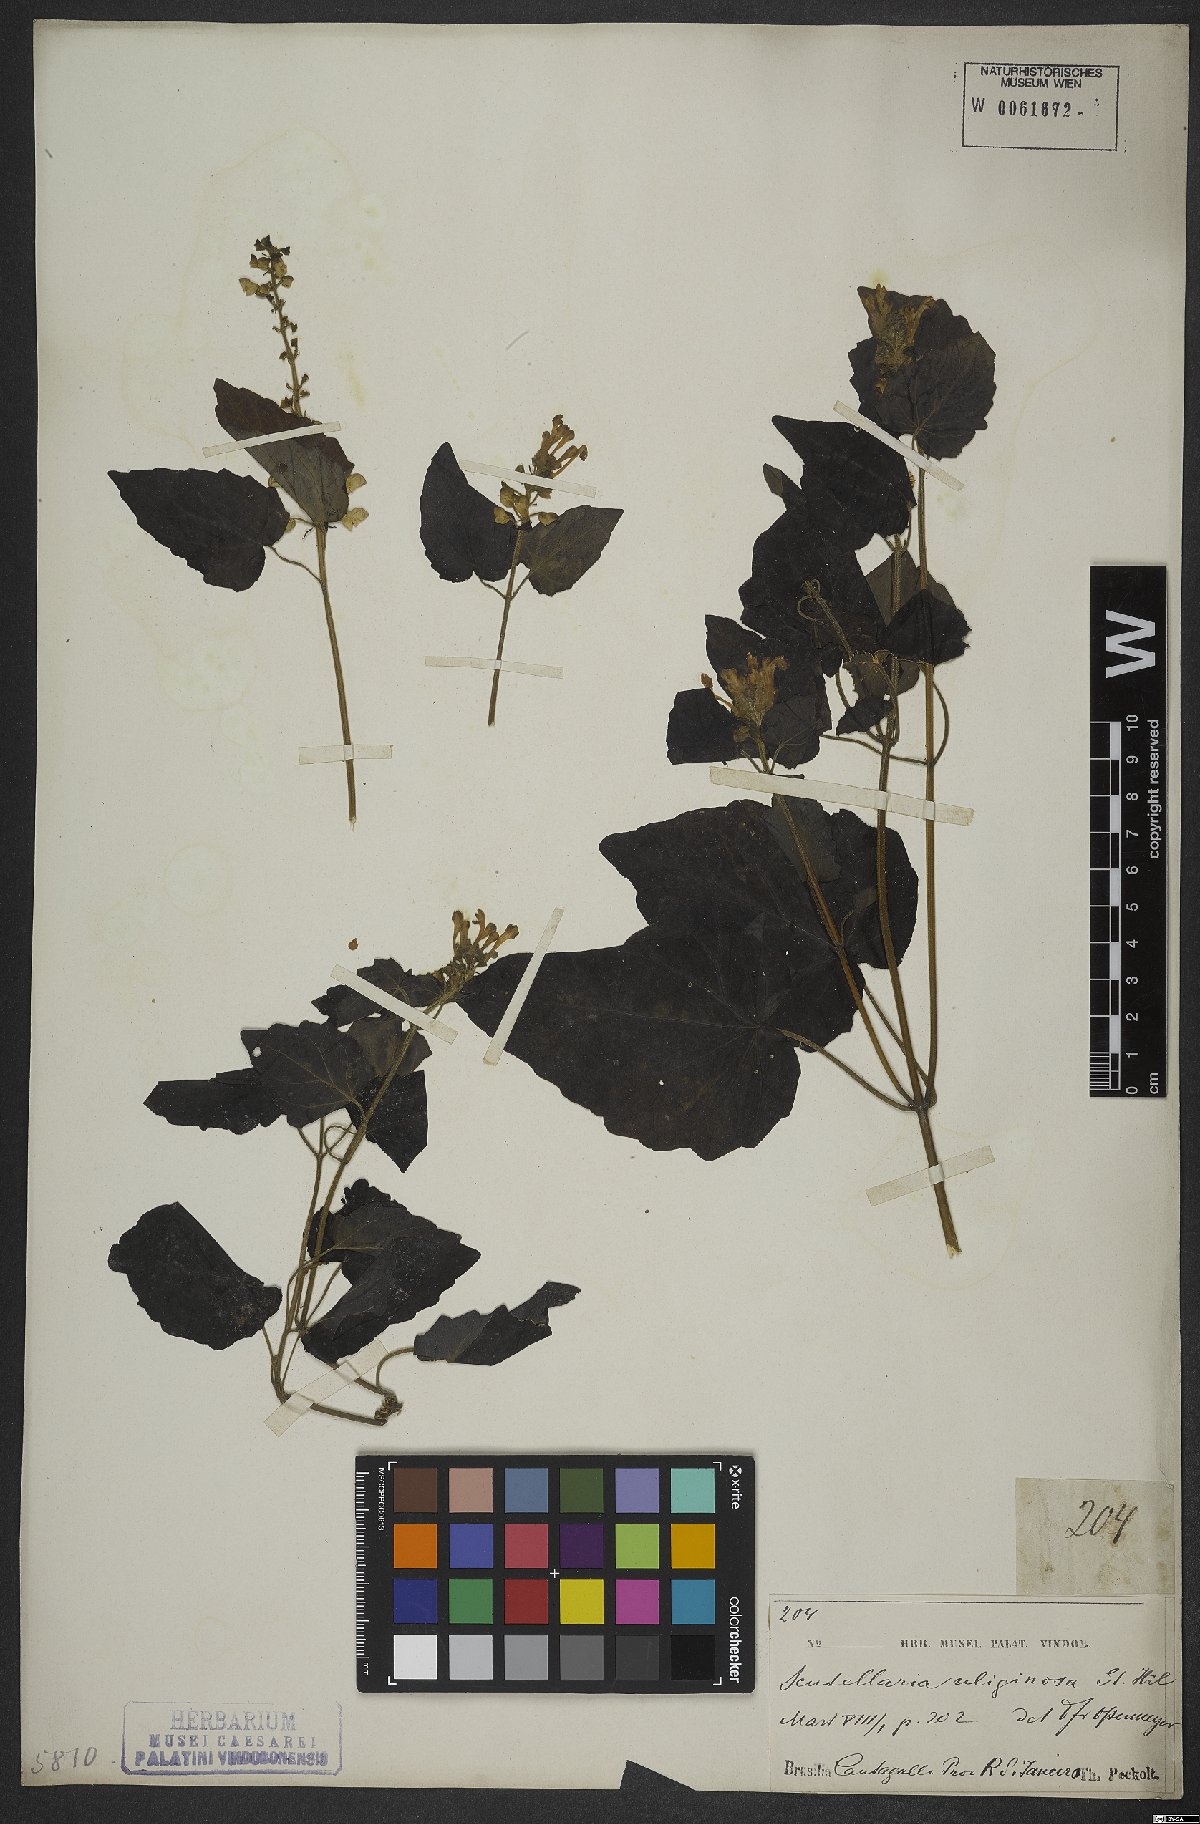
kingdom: Plantae
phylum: Tracheophyta
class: Magnoliopsida
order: Lamiales
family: Lamiaceae
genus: Scutellaria
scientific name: Scutellaria uliginosa
